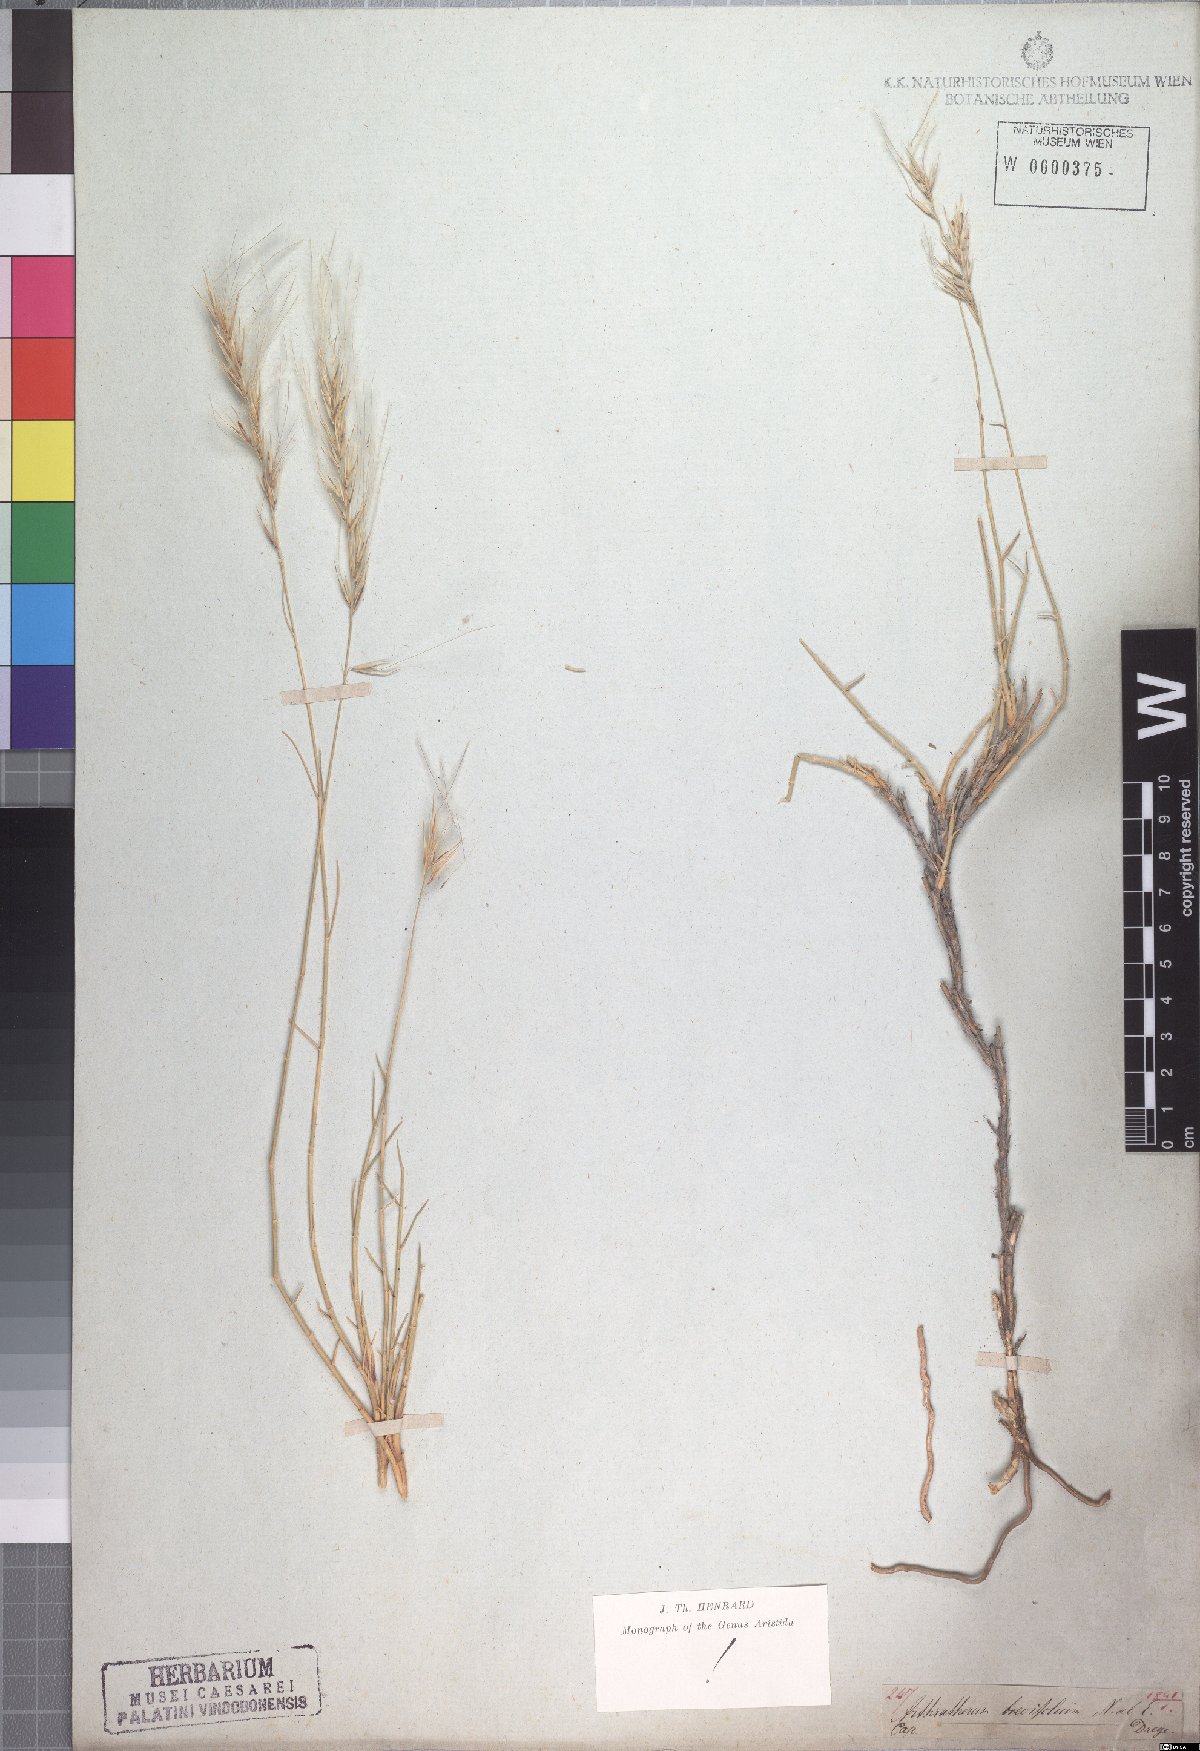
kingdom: Plantae
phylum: Tracheophyta
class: Liliopsida
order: Poales
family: Poaceae
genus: Stipagrostis
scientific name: Stipagrostis brevifolia
